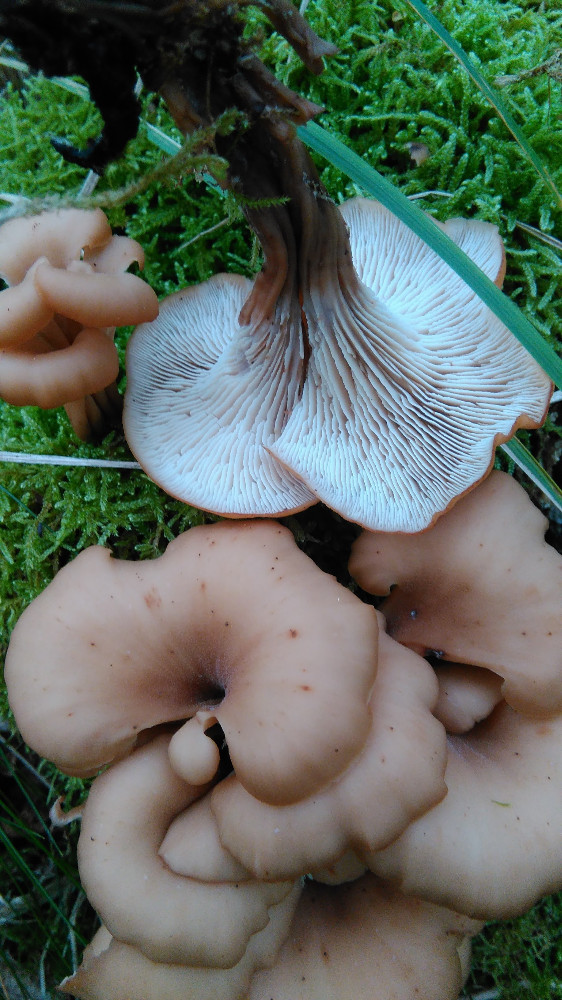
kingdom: Fungi
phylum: Basidiomycota
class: Agaricomycetes
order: Russulales
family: Auriscalpiaceae
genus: Lentinellus
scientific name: Lentinellus cochleatus
